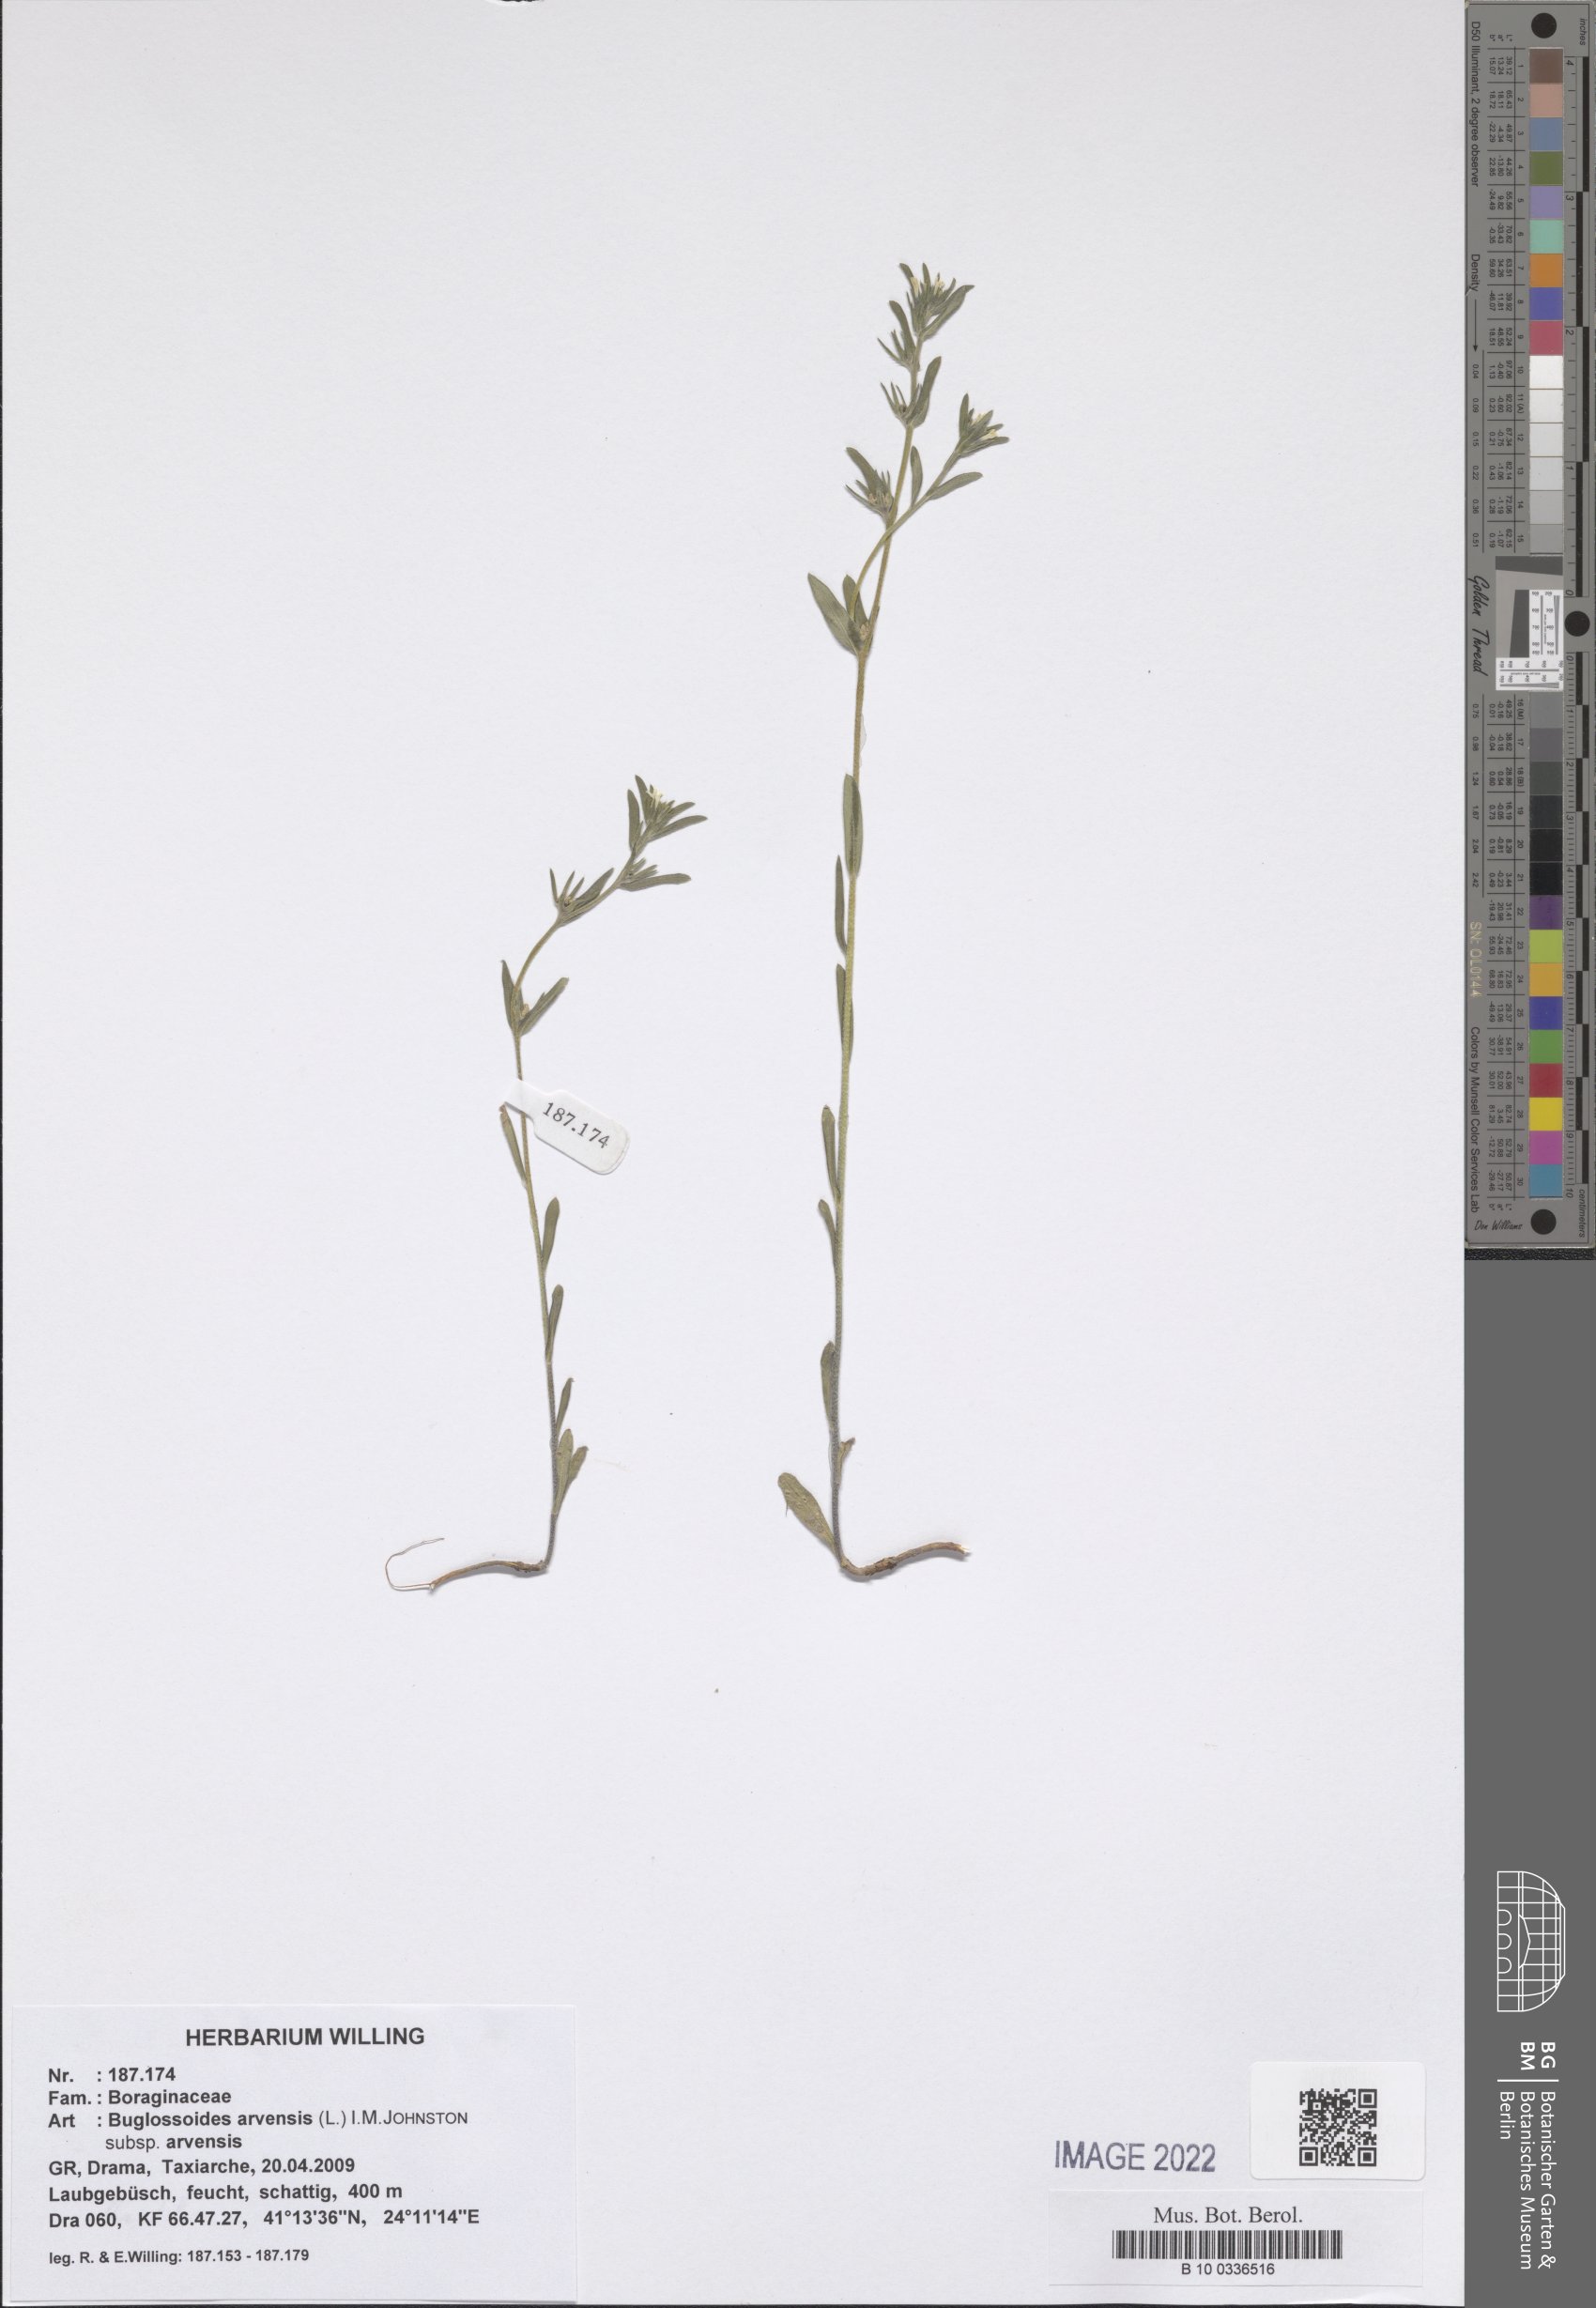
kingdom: Plantae
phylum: Tracheophyta
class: Magnoliopsida
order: Boraginales
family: Boraginaceae
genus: Buglossoides
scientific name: Buglossoides arvensis
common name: Corn gromwell
